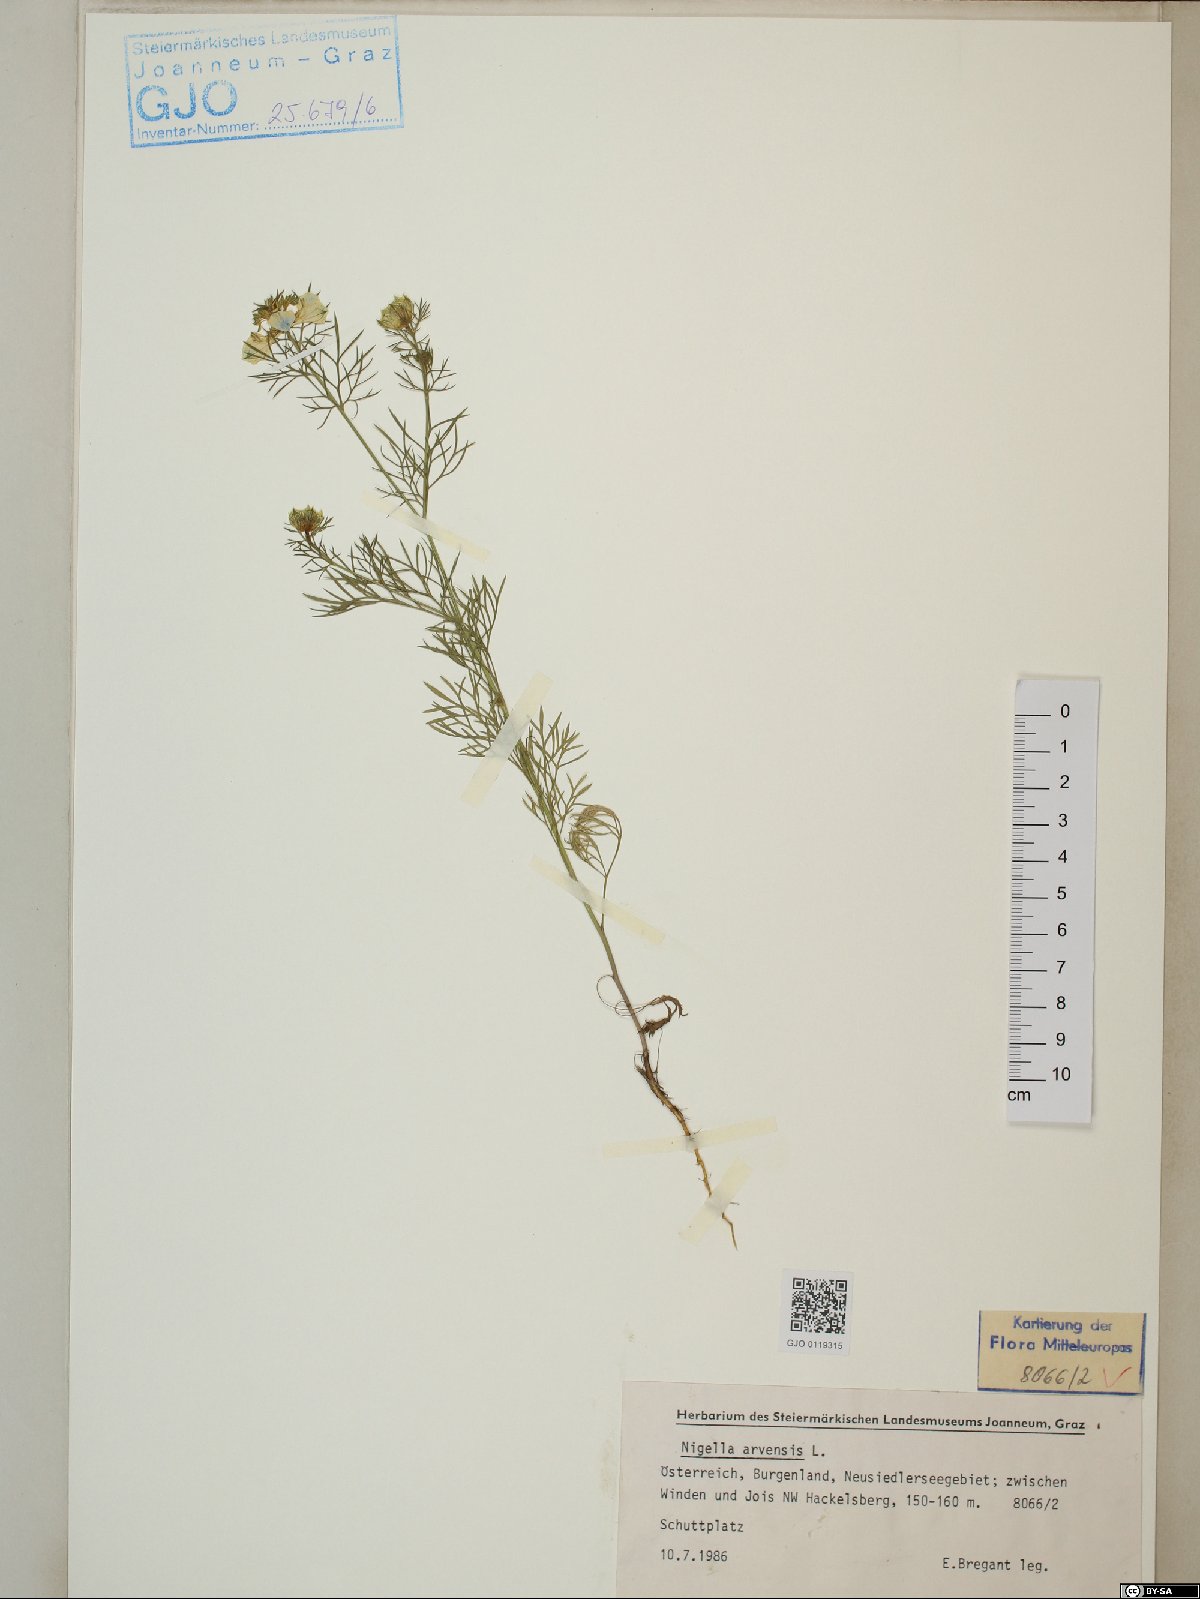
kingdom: Plantae
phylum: Tracheophyta
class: Magnoliopsida
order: Ranunculales
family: Ranunculaceae
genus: Nigella
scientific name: Nigella arvensis
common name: Wild fennel-flower
